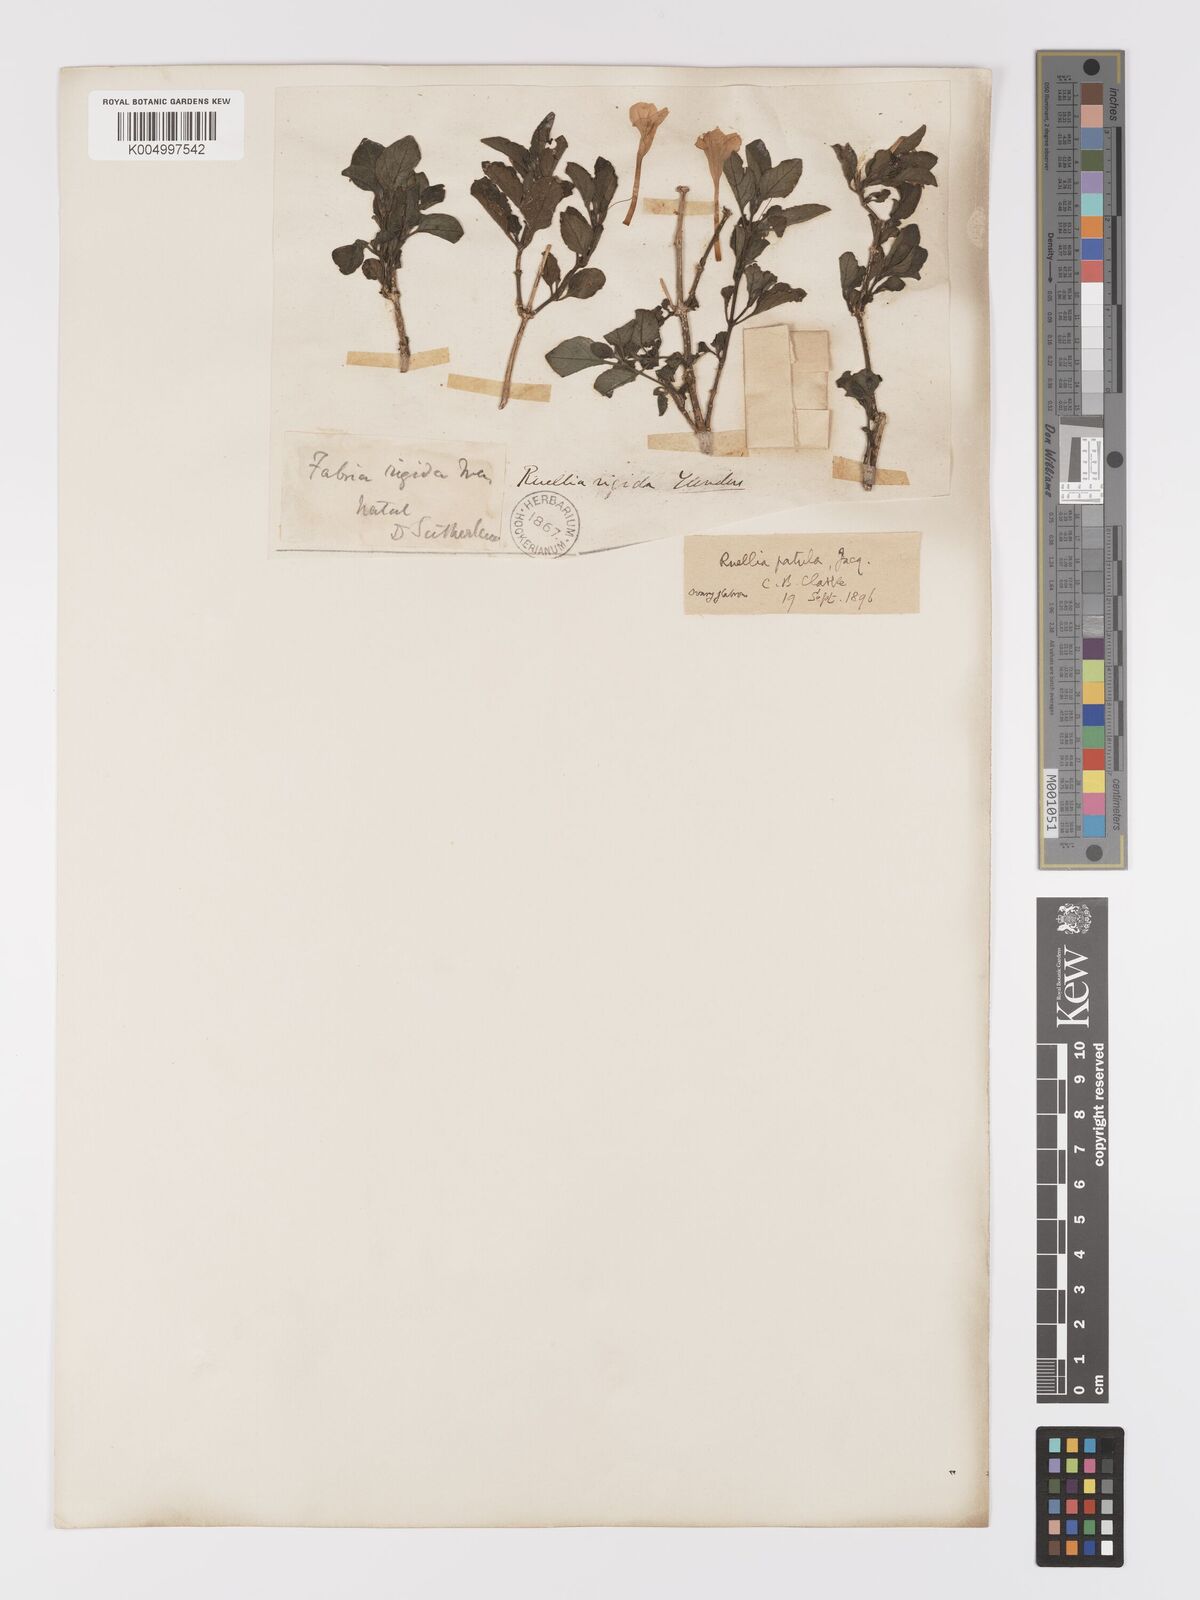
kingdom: Plantae
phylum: Tracheophyta
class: Magnoliopsida
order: Lamiales
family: Acanthaceae
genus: Ruellia
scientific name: Ruellia patula
